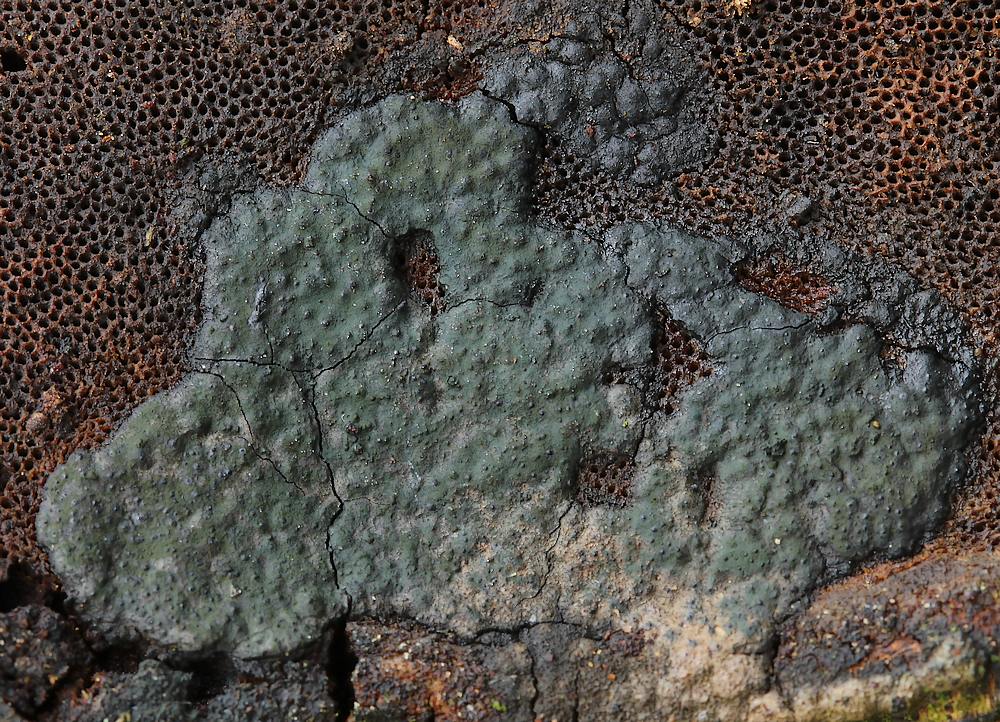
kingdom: Fungi
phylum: Ascomycota
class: Sordariomycetes
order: Xylariales
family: Xylariaceae
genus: Nemania
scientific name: Nemania serpens
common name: hovpore-kuldyne
